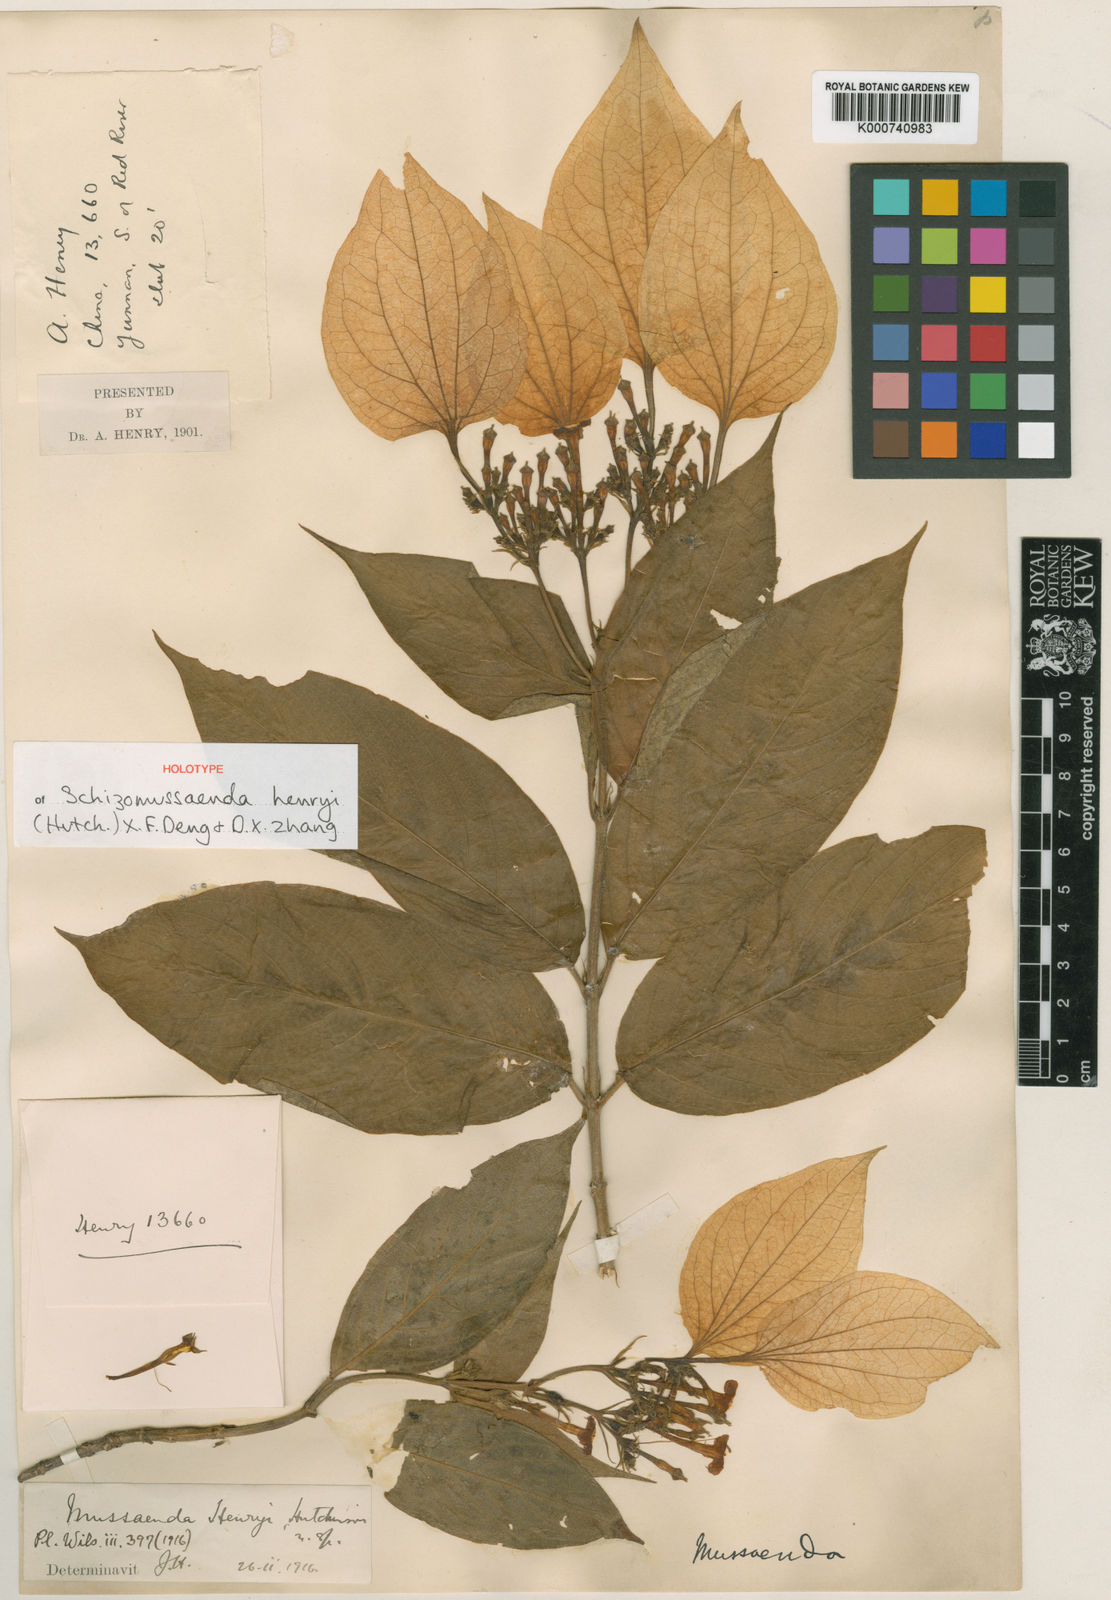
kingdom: Plantae
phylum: Tracheophyta
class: Magnoliopsida
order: Gentianales
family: Rubiaceae
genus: Schizomussaenda
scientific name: Schizomussaenda henryi
